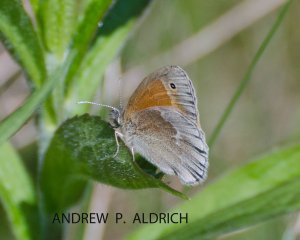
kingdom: Animalia
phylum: Arthropoda
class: Insecta
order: Lepidoptera
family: Nymphalidae
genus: Coenonympha
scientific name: Coenonympha tullia
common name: Large Heath
